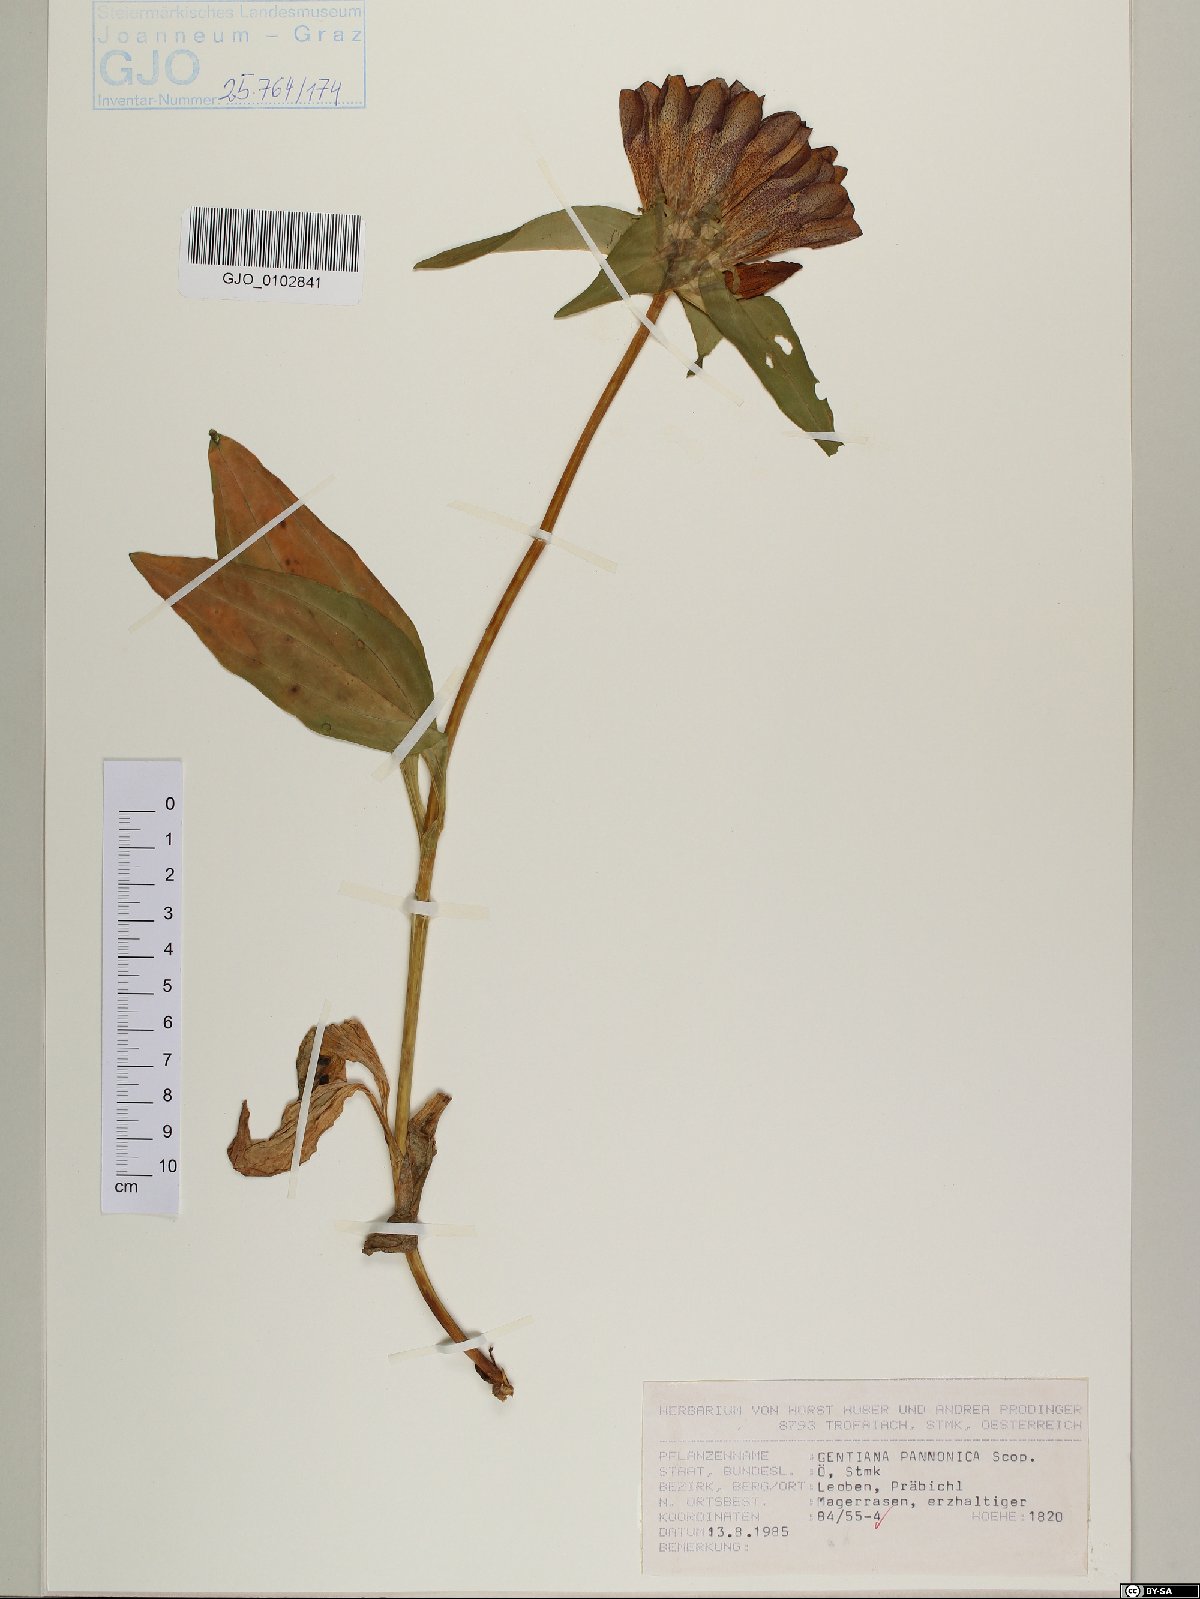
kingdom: Plantae
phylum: Tracheophyta
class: Magnoliopsida
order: Gentianales
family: Gentianaceae
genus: Gentiana
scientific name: Gentiana pannonica
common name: Hungarian gentian
